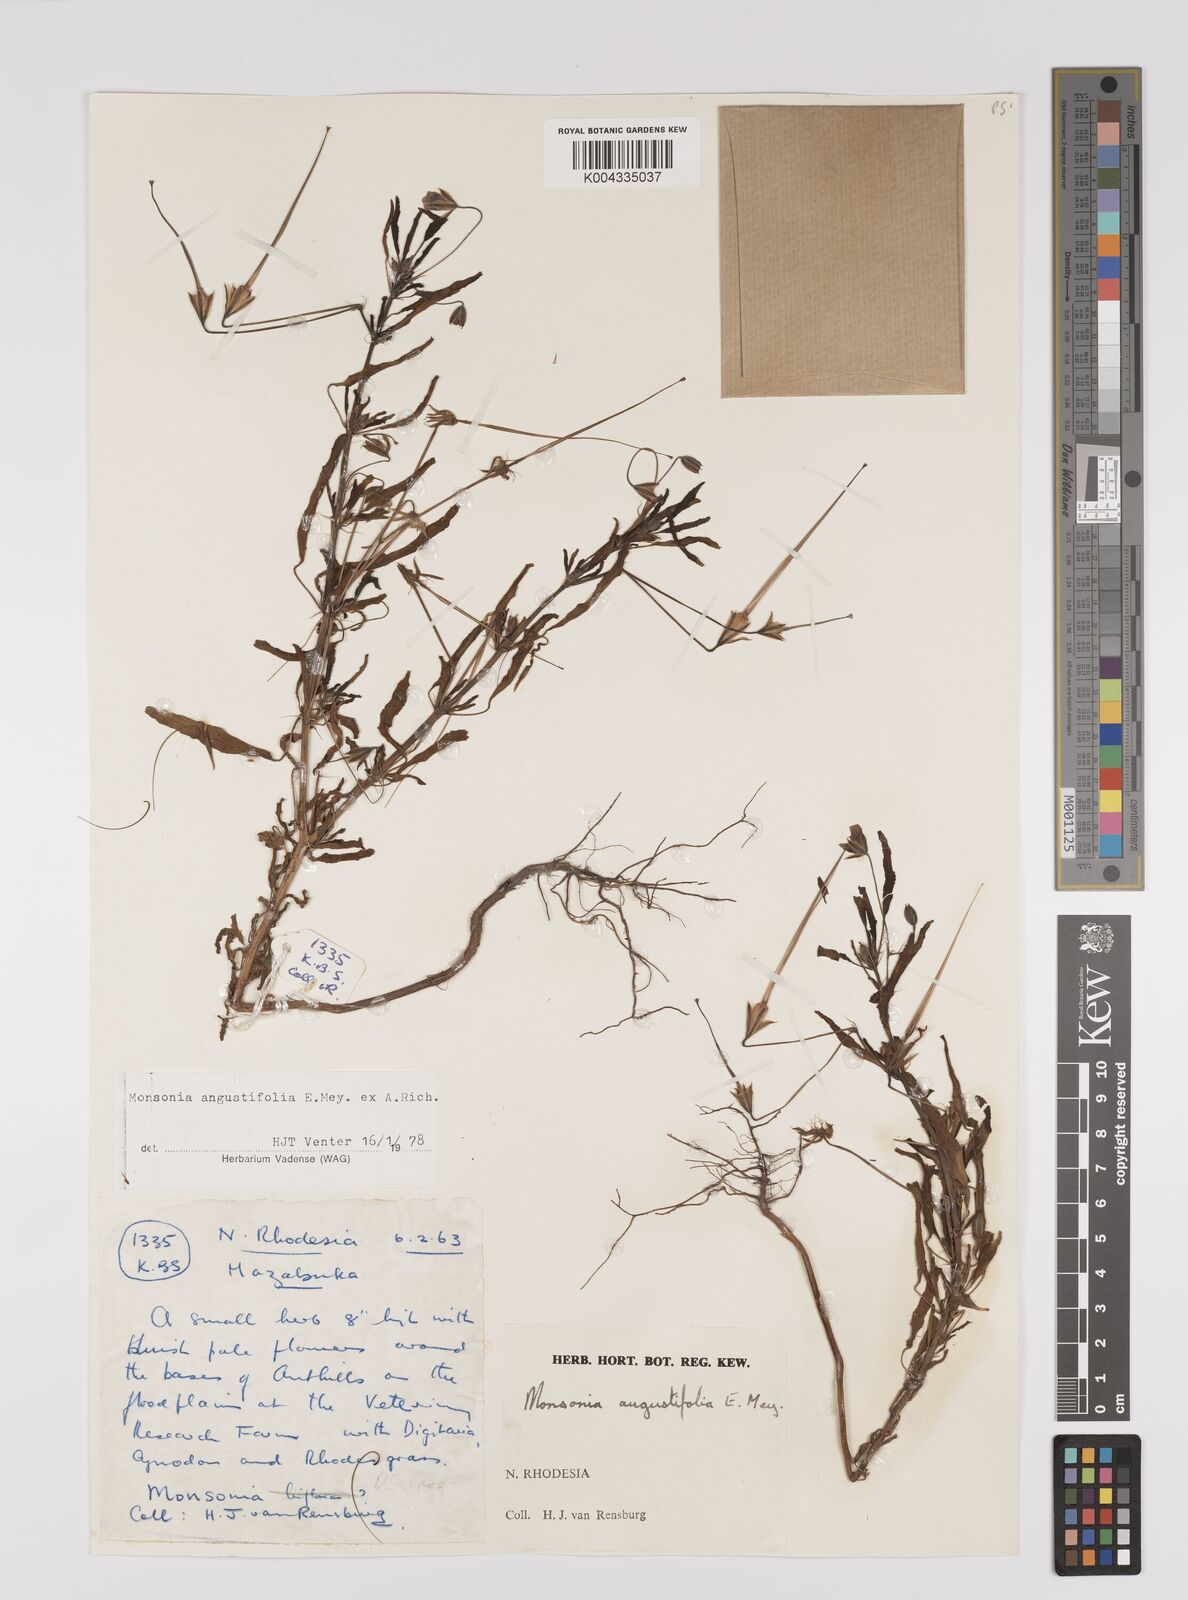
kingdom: Plantae
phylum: Tracheophyta
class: Magnoliopsida
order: Geraniales
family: Geraniaceae
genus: Monsonia
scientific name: Monsonia angustifolia
